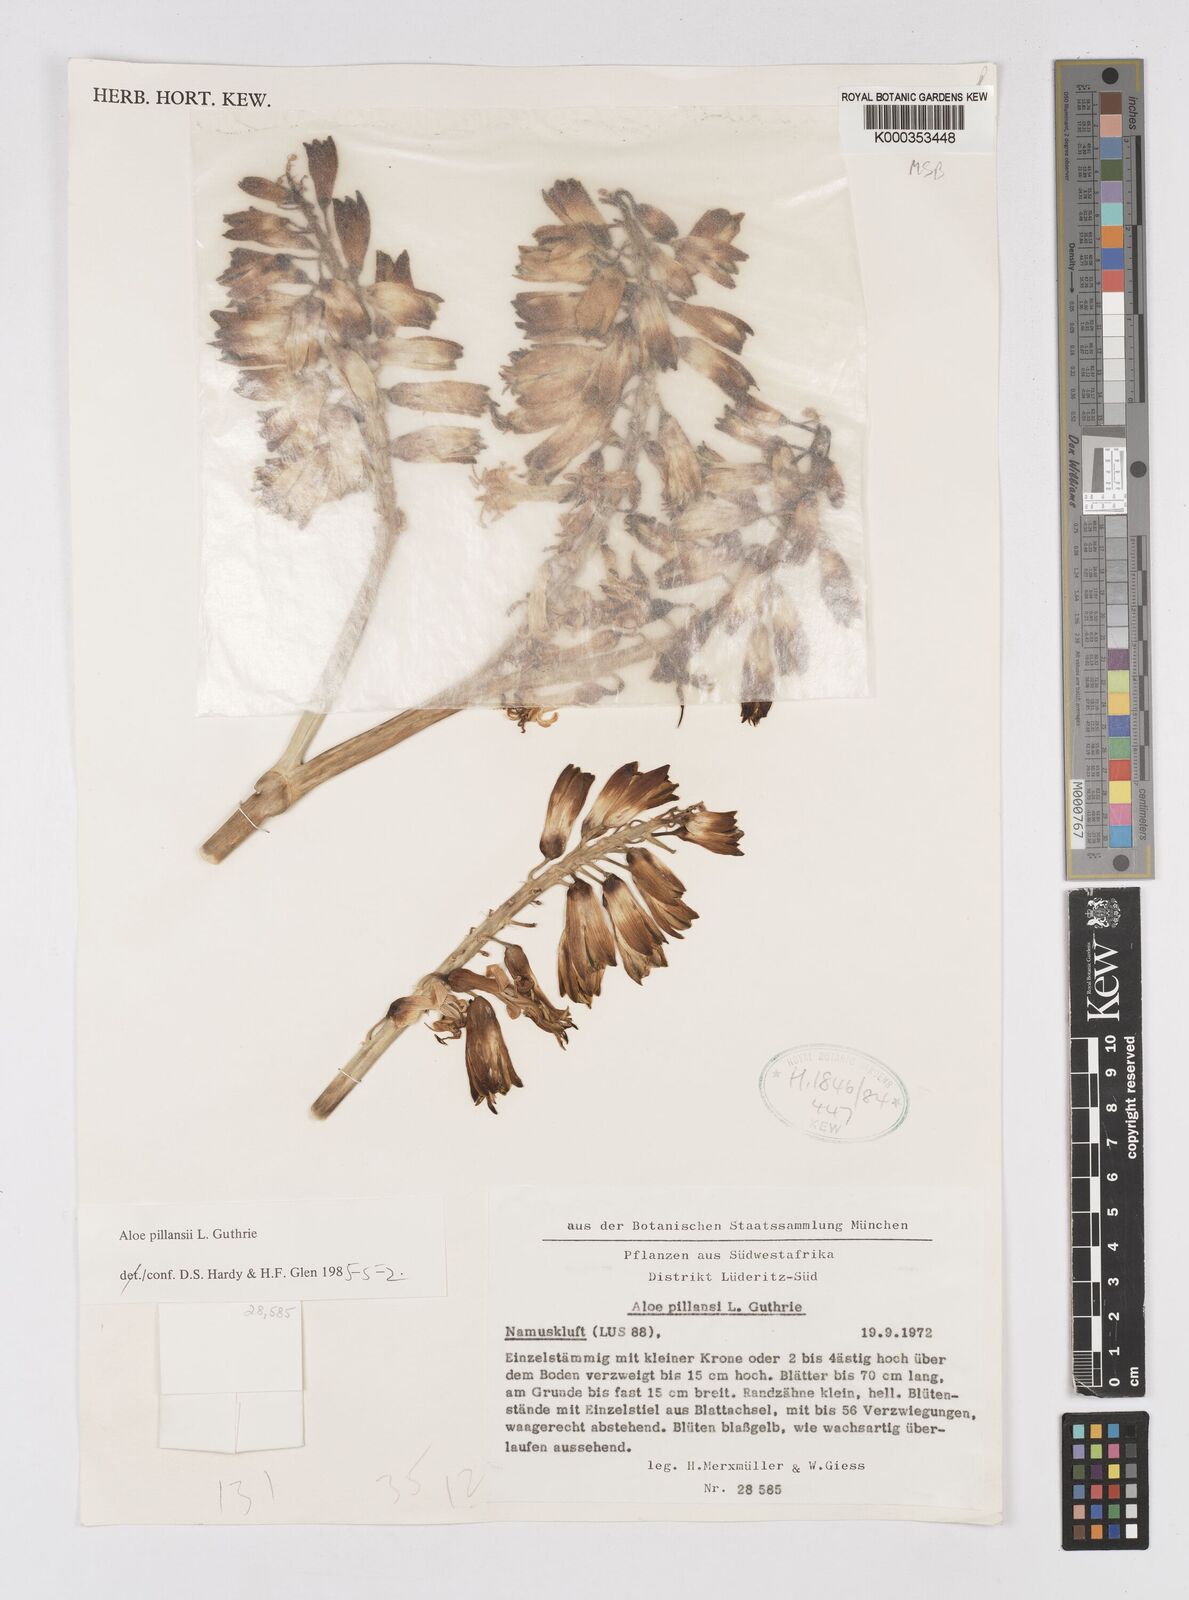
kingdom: Plantae
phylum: Tracheophyta
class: Liliopsida
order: Asparagales
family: Asphodelaceae
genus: Aloidendron
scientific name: Aloidendron pillansii
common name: Bastard quiver tree
